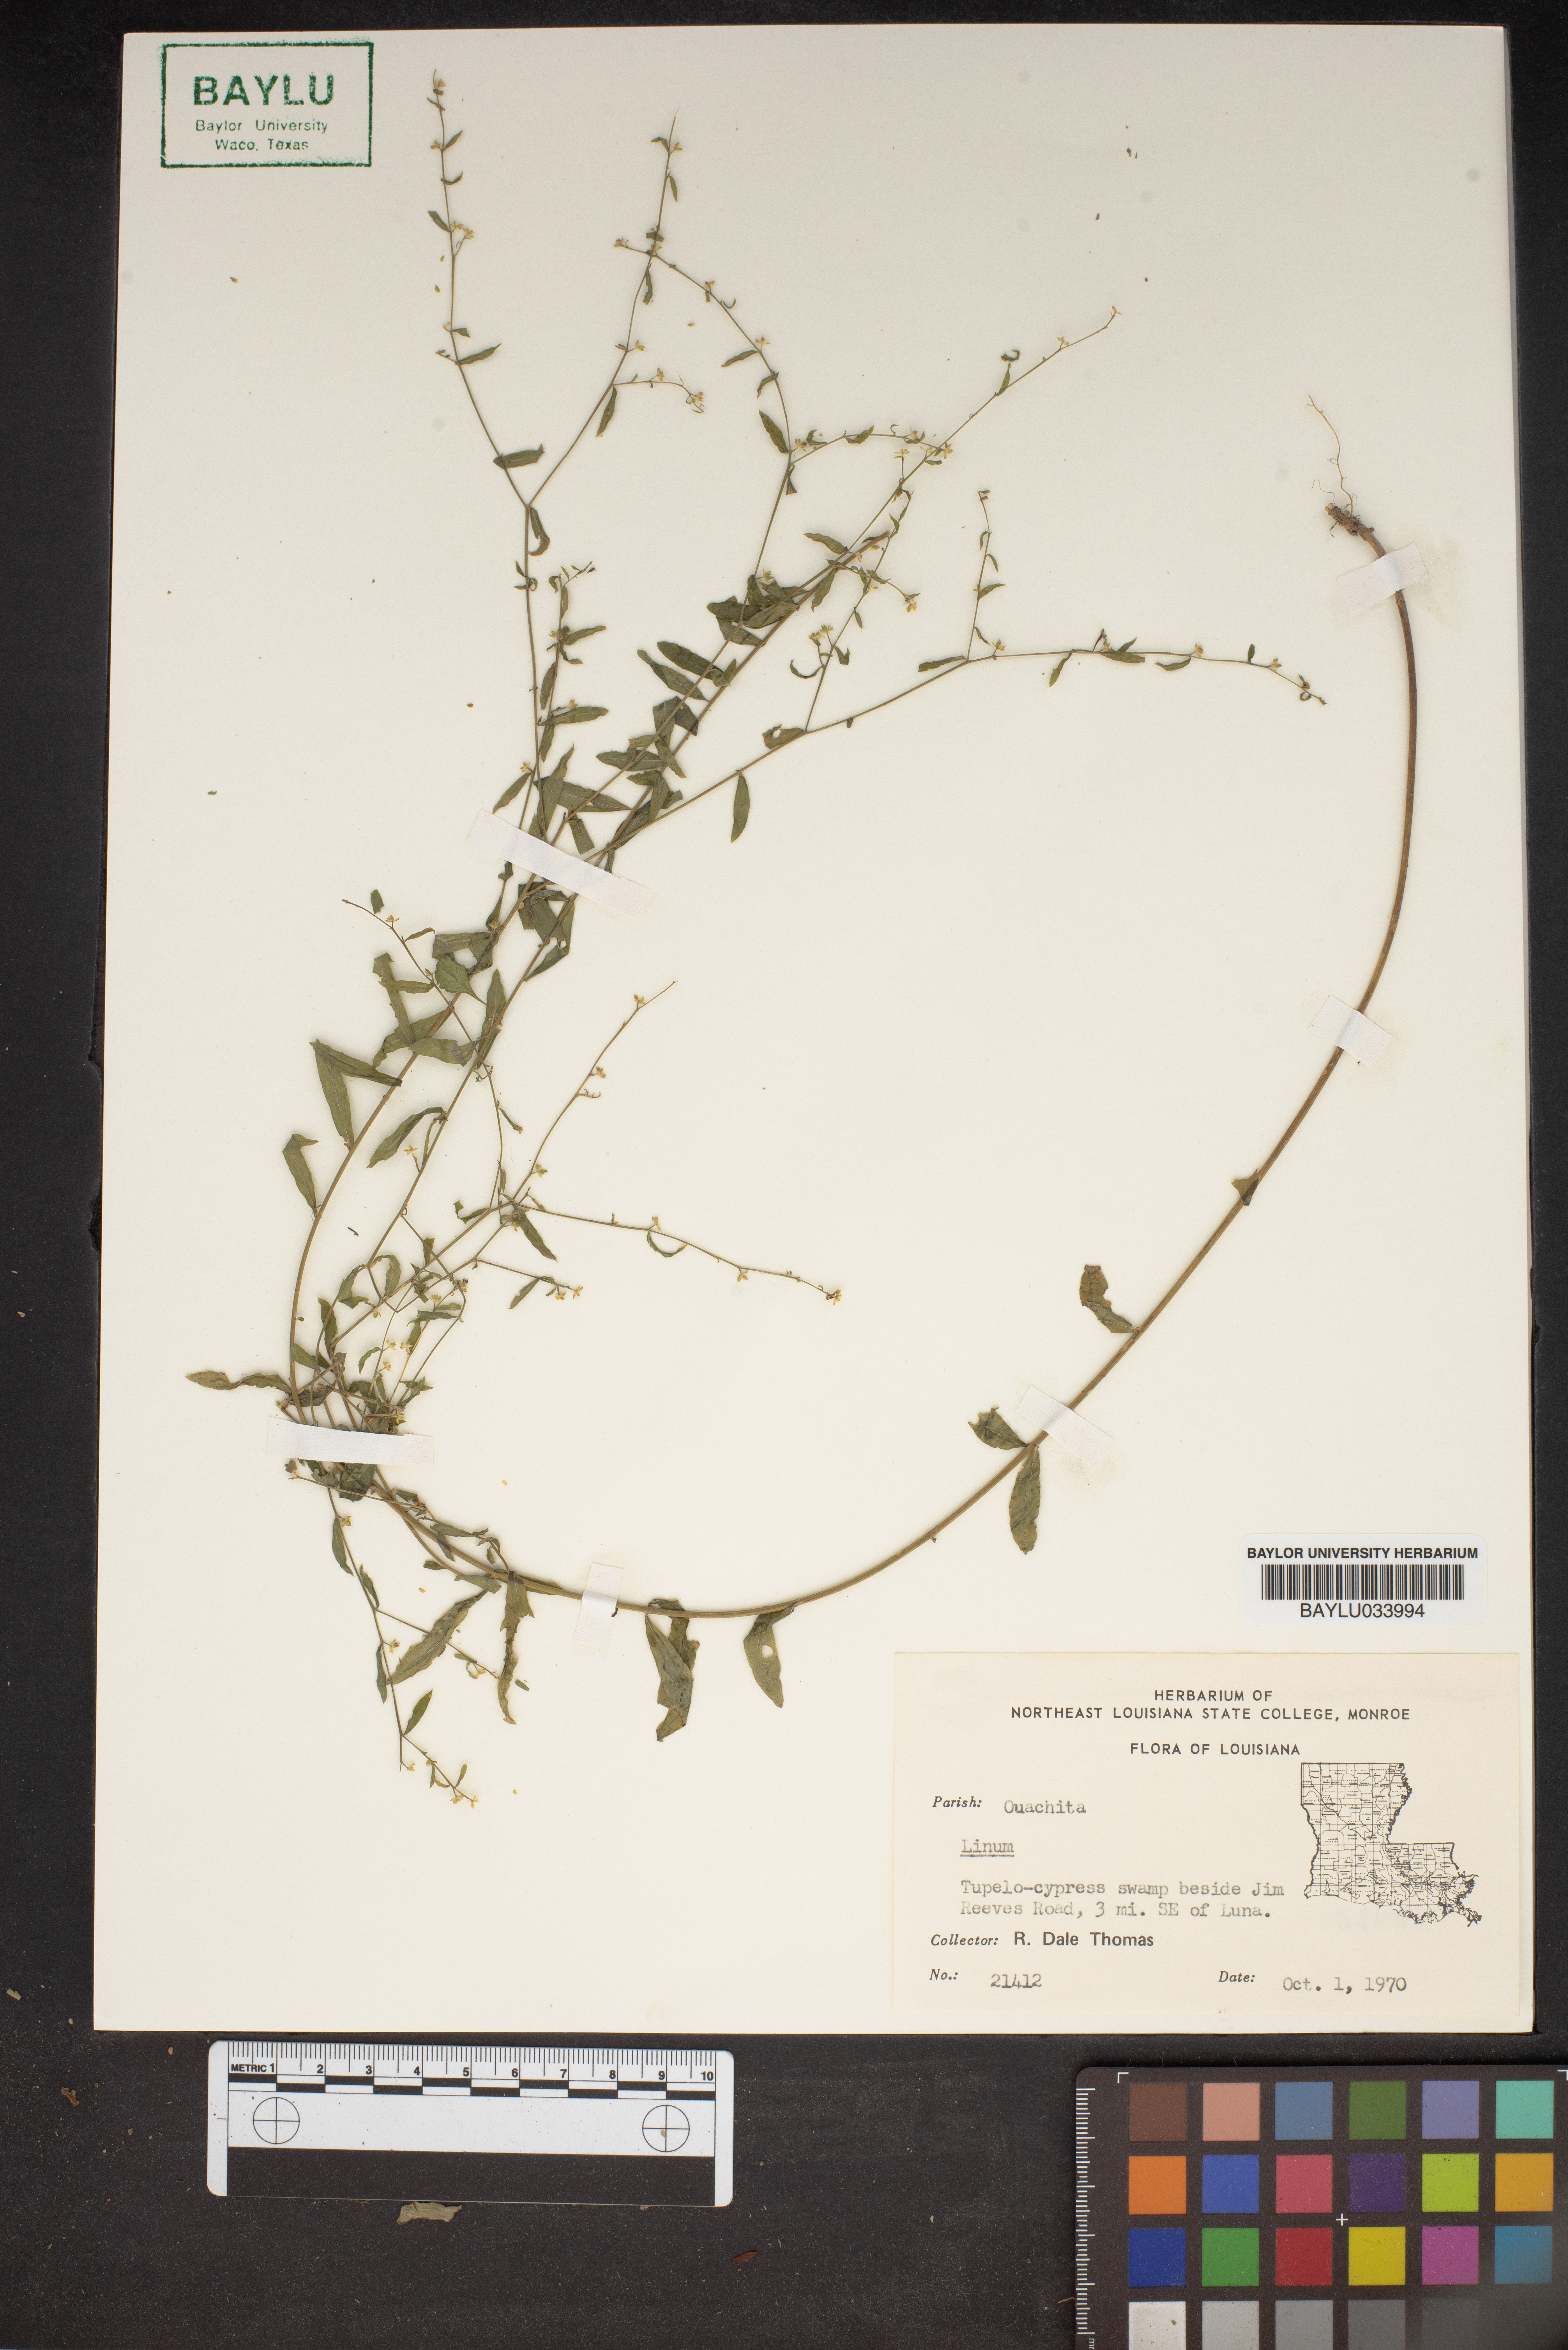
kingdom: Plantae
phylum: Tracheophyta
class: Magnoliopsida
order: Malpighiales
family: Linaceae
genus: Linum
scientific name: Linum
